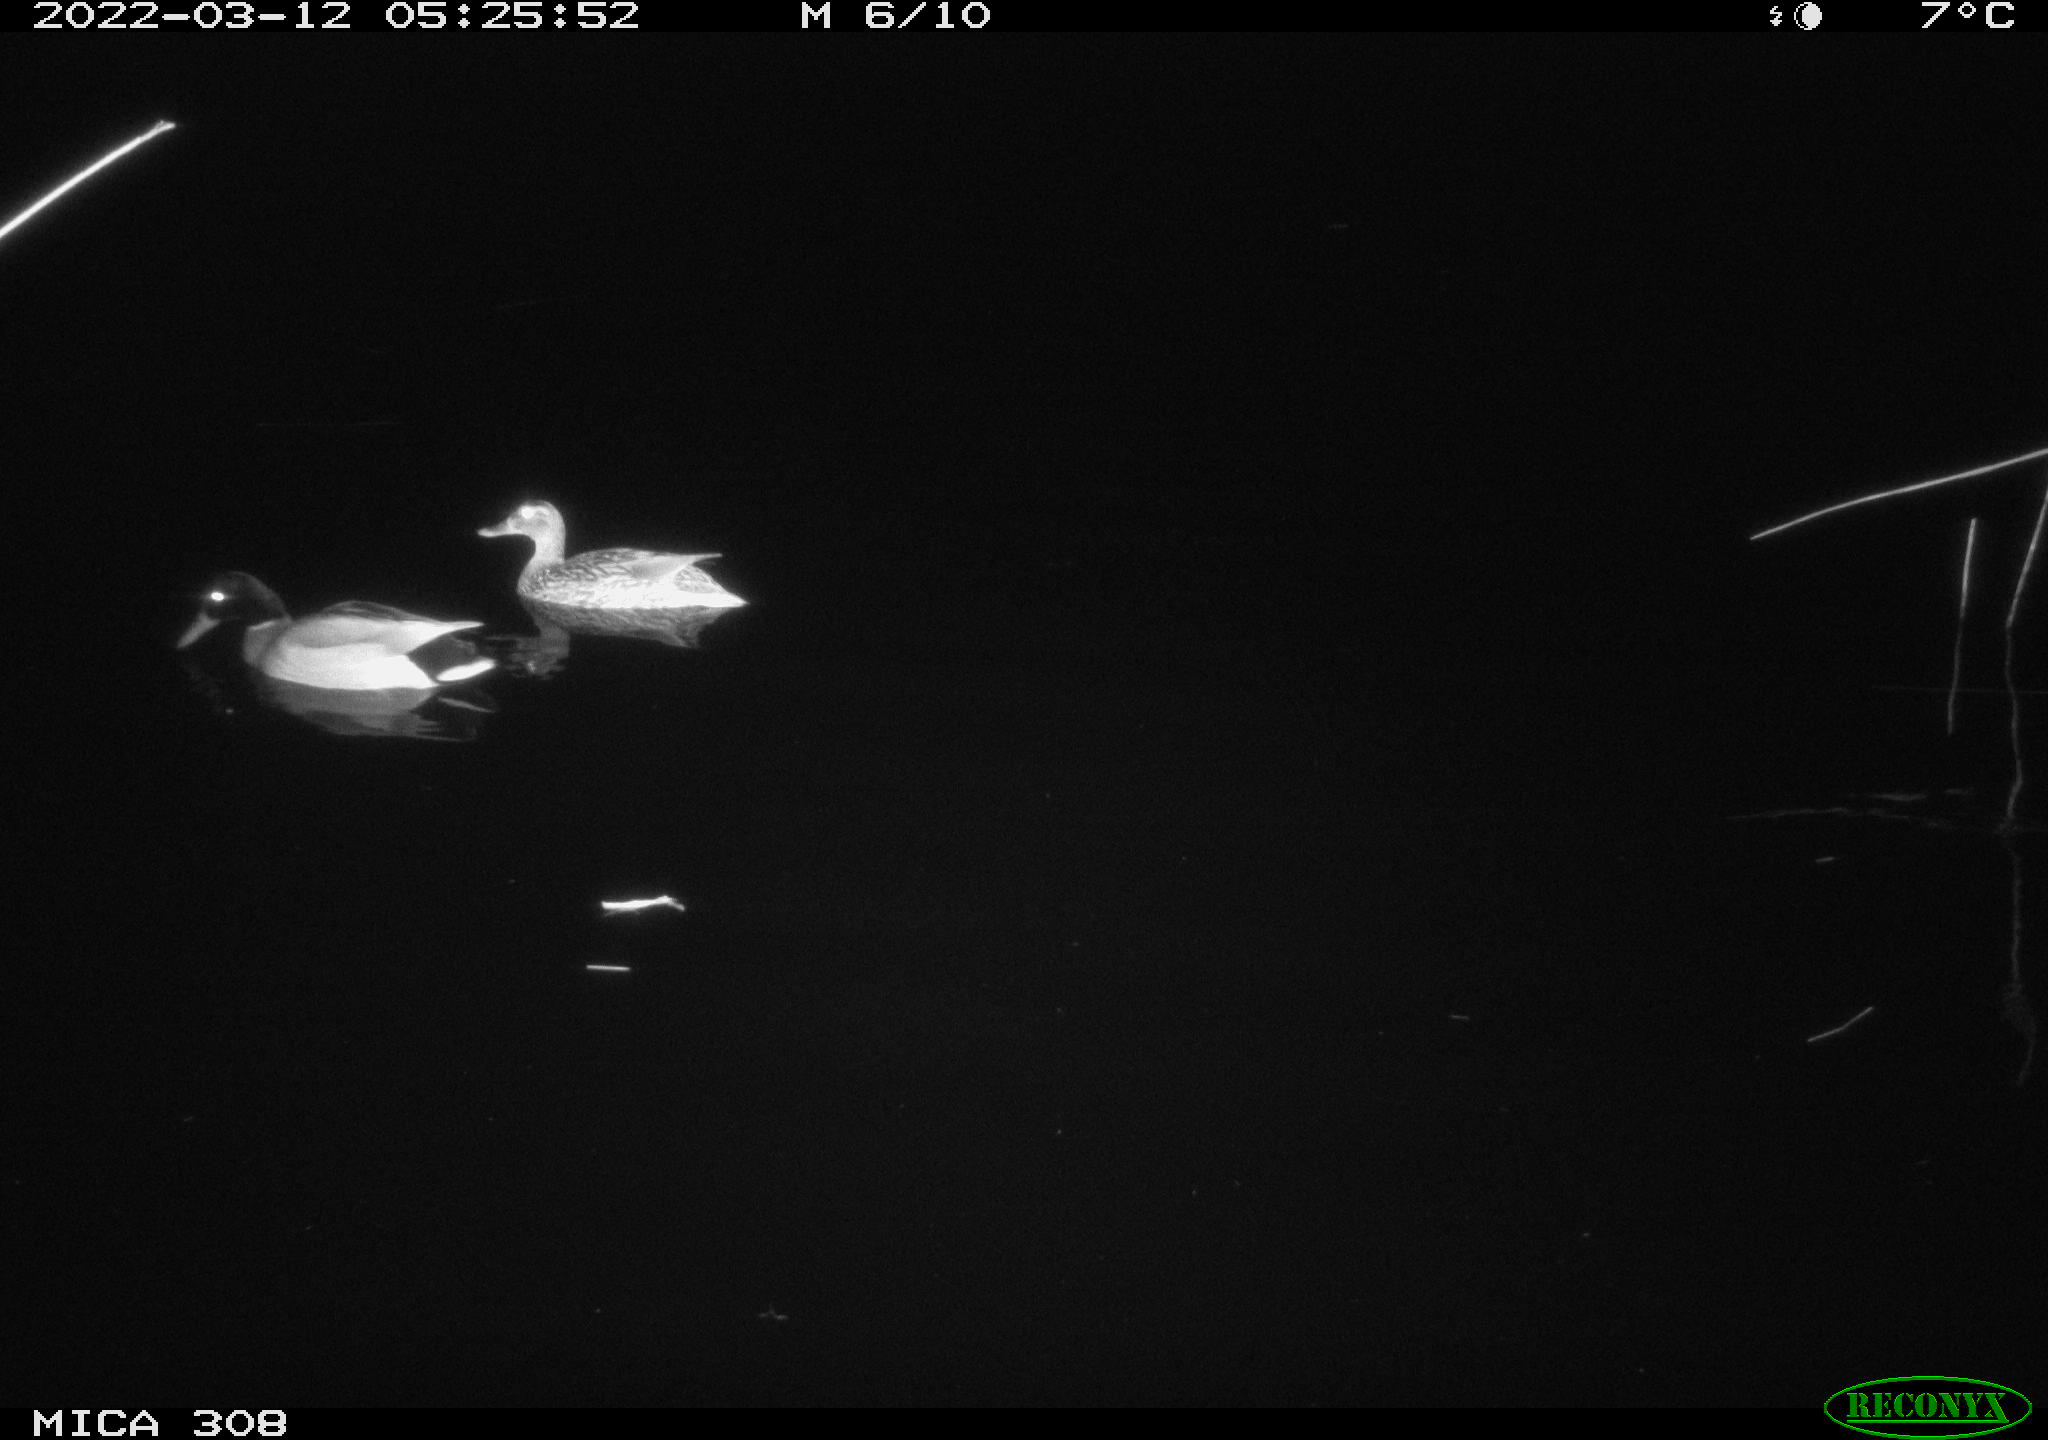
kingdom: Animalia
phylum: Chordata
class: Aves
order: Anseriformes
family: Anatidae
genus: Anas
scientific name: Anas platyrhynchos
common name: Mallard
